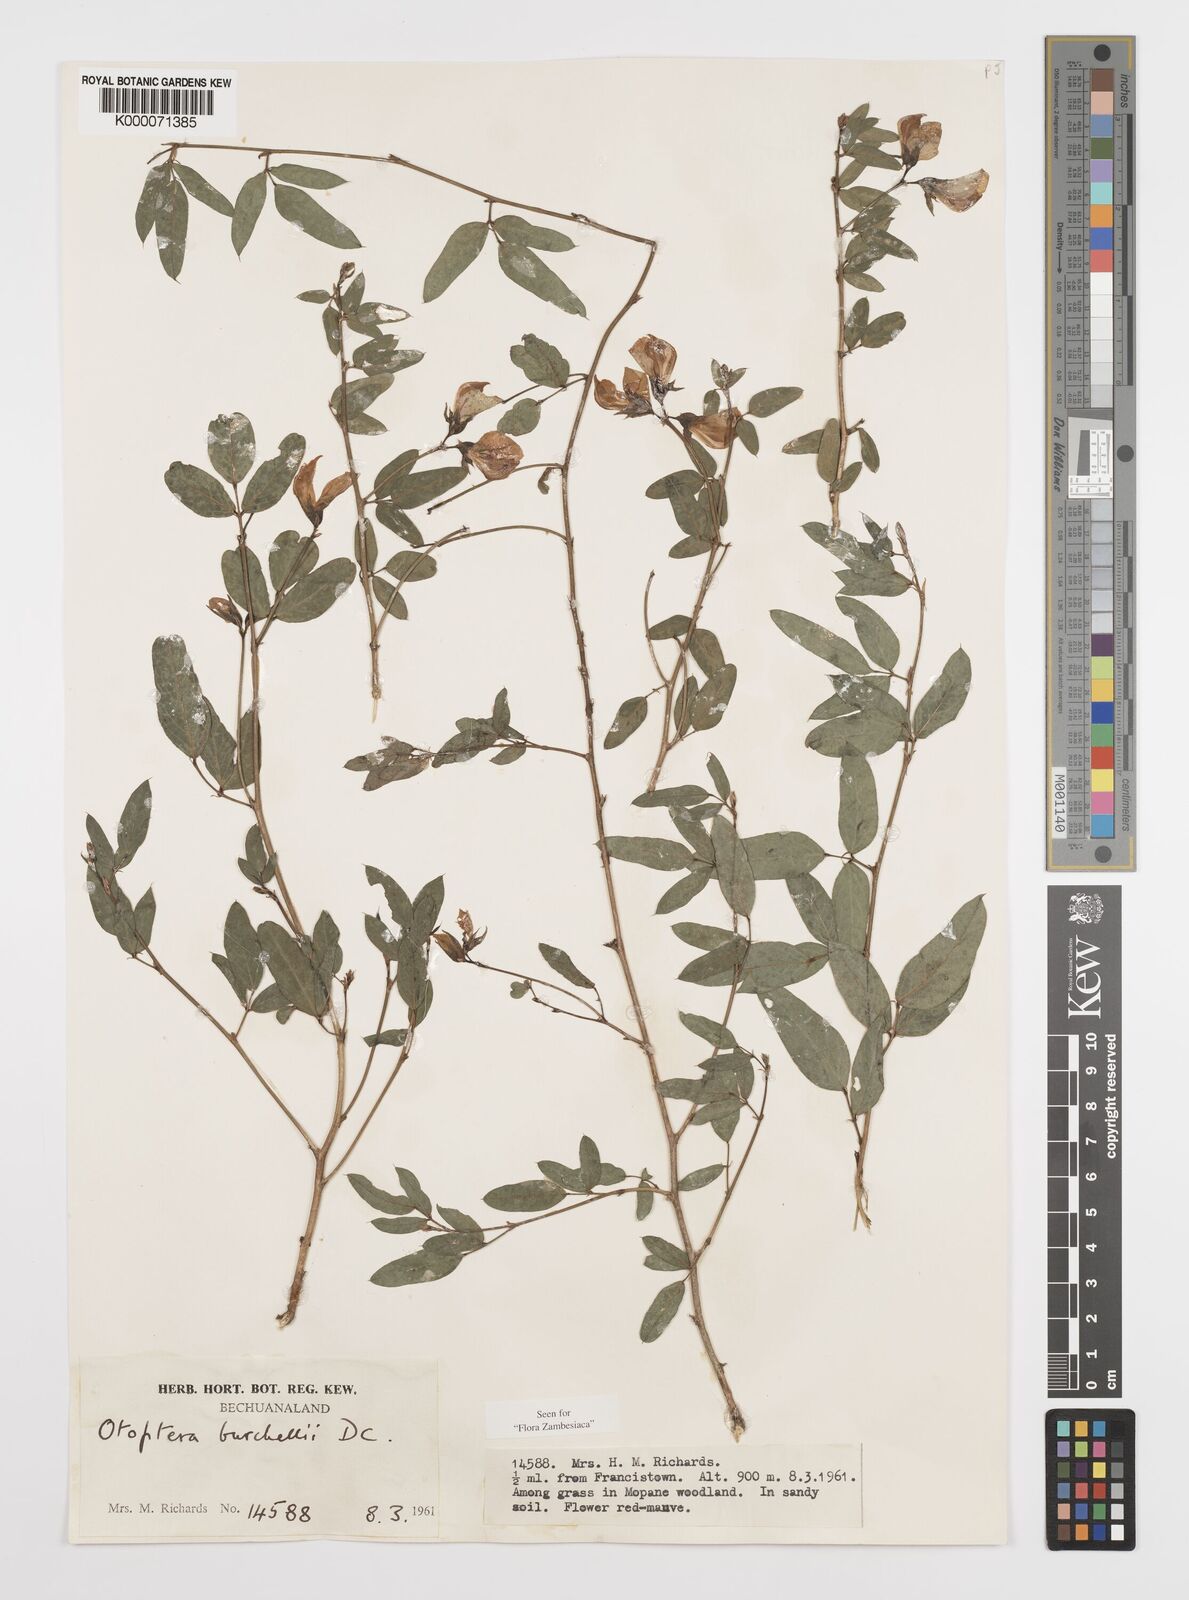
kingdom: Plantae
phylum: Tracheophyta
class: Magnoliopsida
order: Fabales
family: Fabaceae
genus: Otoptera
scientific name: Otoptera burchellii
